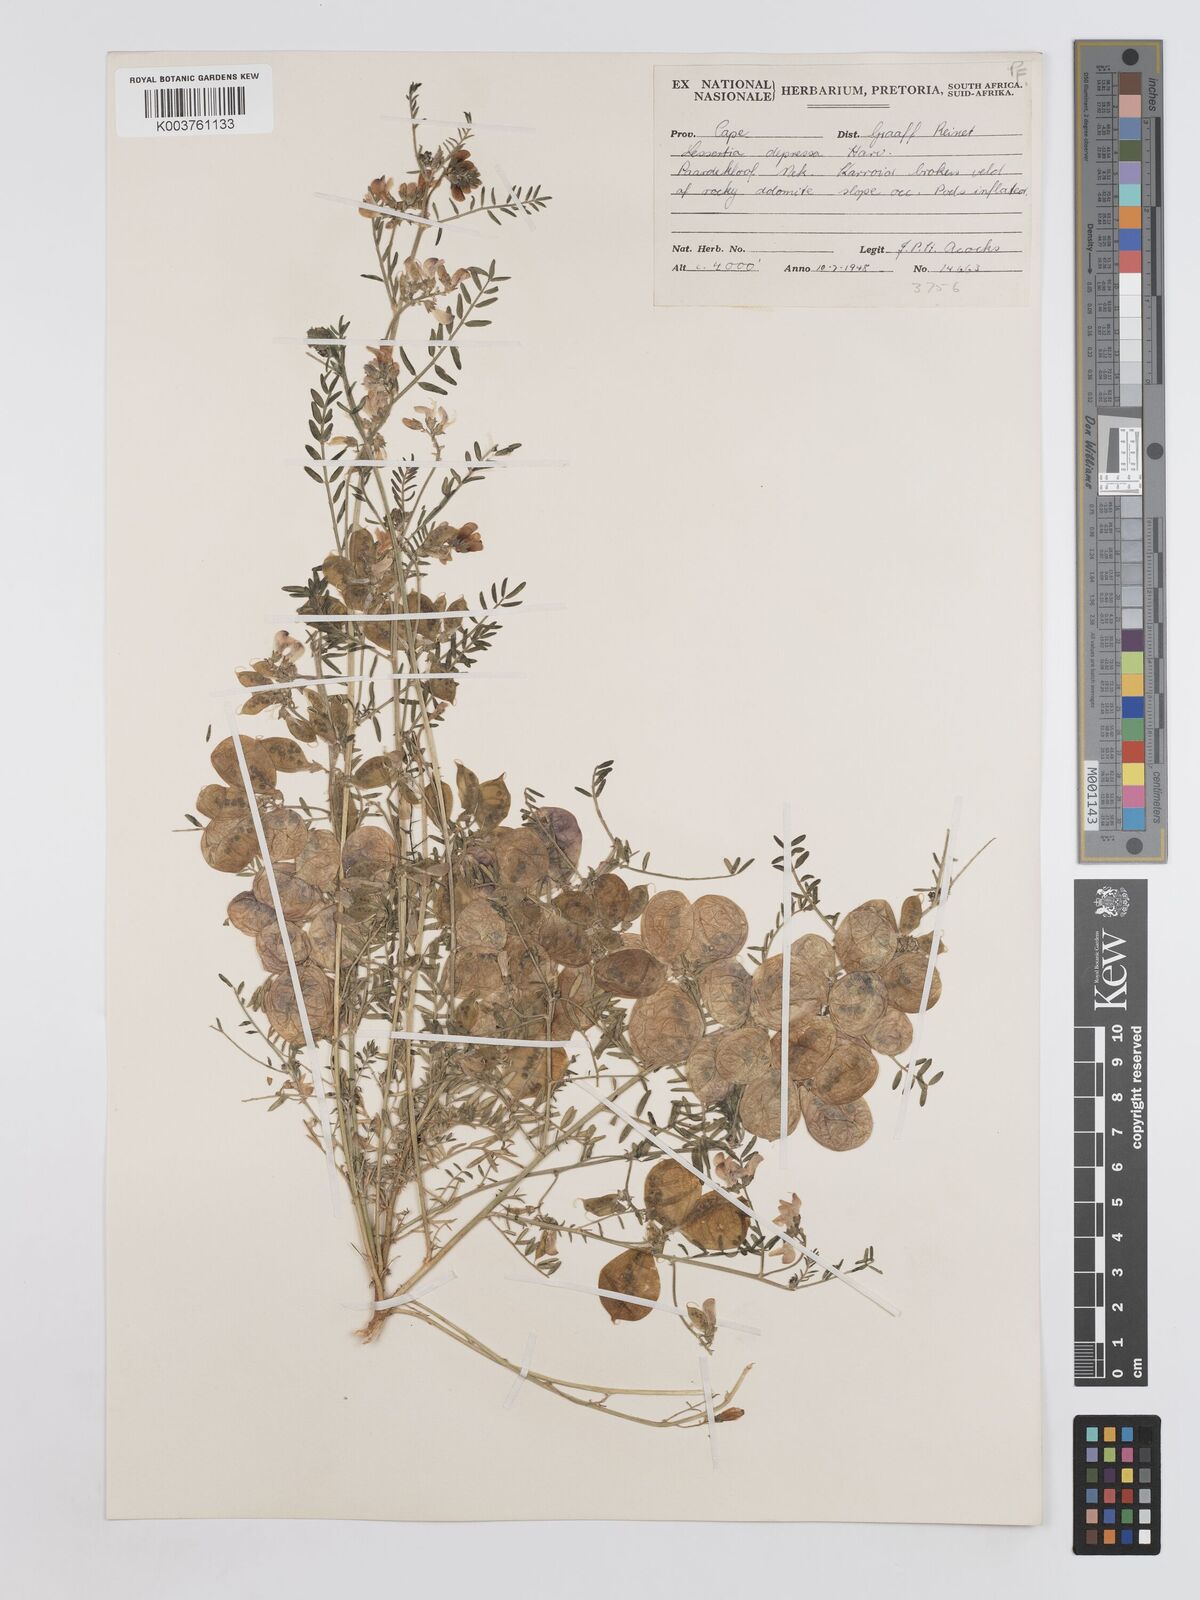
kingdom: Plantae
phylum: Tracheophyta
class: Magnoliopsida
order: Fabales
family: Fabaceae
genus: Lessertia
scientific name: Lessertia depressa
